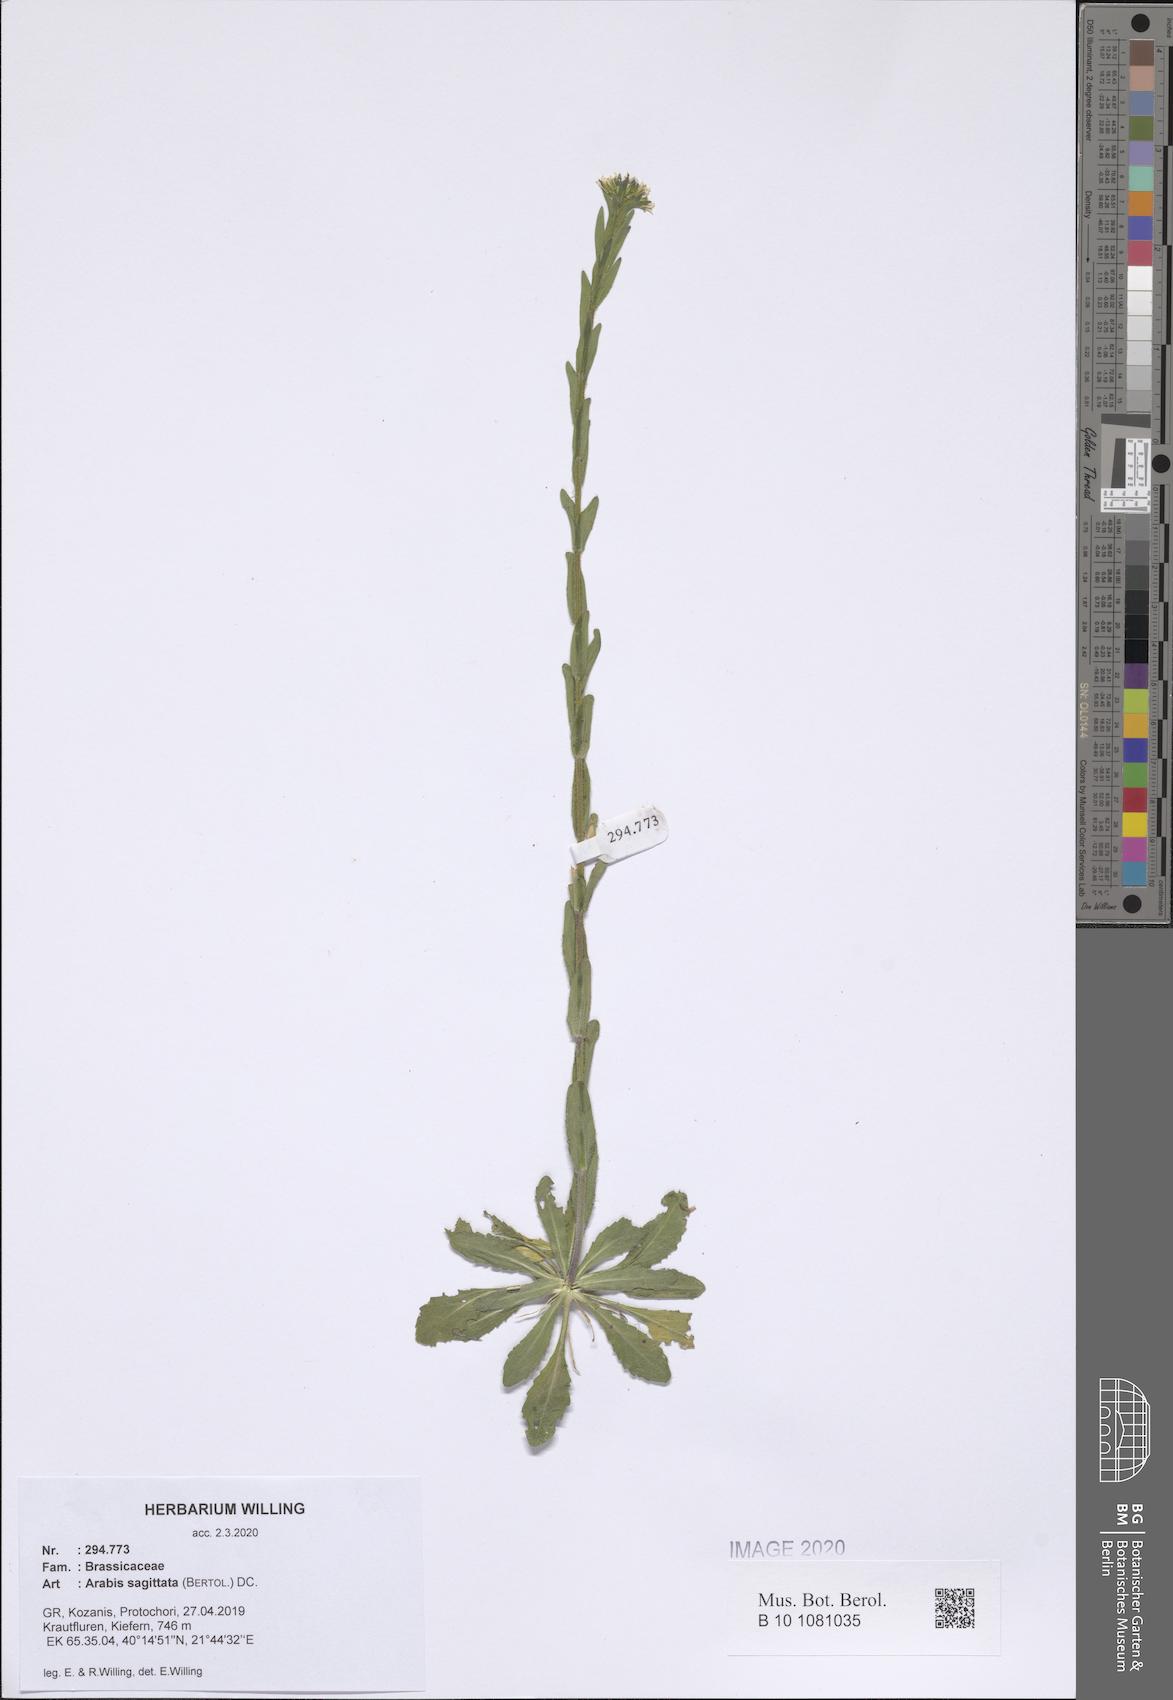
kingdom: Plantae
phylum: Tracheophyta
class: Magnoliopsida
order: Brassicales
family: Brassicaceae
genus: Arabis
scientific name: Arabis sagittata
